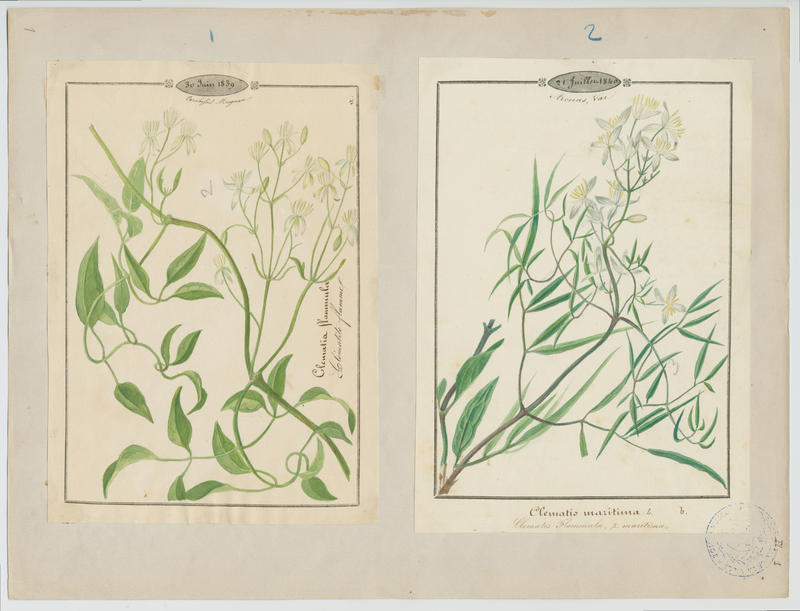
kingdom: Plantae
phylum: Tracheophyta
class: Magnoliopsida
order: Ranunculales
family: Ranunculaceae
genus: Clematis
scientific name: Clematis flammula
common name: Virgin's-bower
